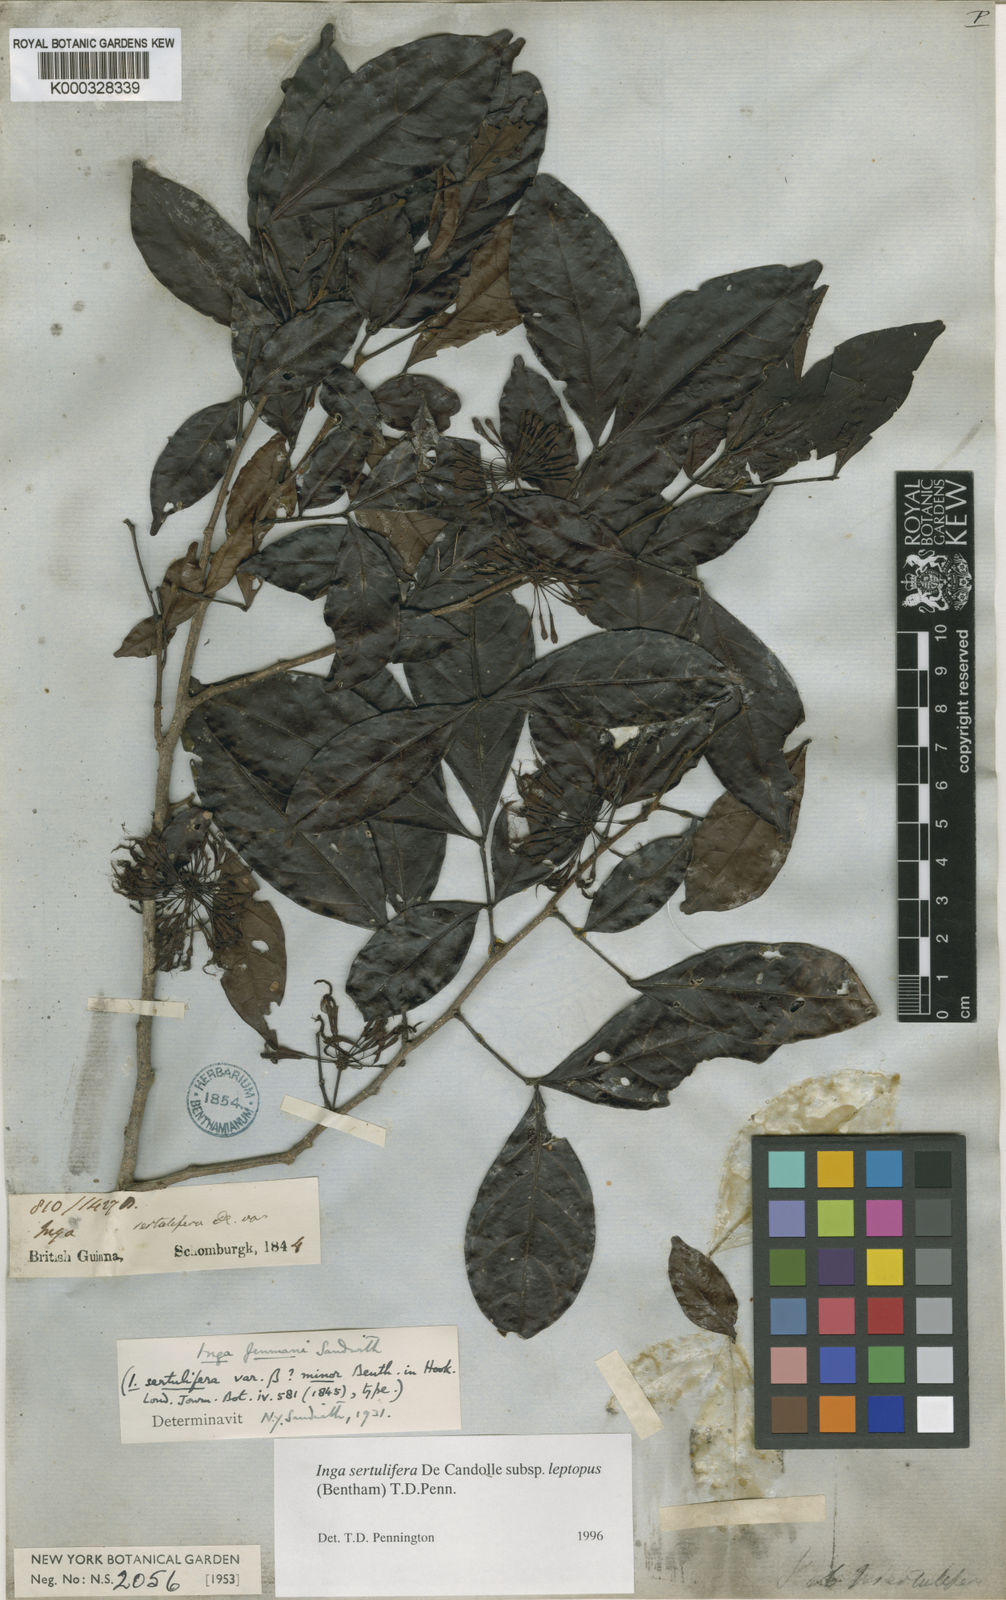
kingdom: Plantae
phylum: Tracheophyta
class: Magnoliopsida
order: Fabales
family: Fabaceae
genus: Inga
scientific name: Inga sertulifera
